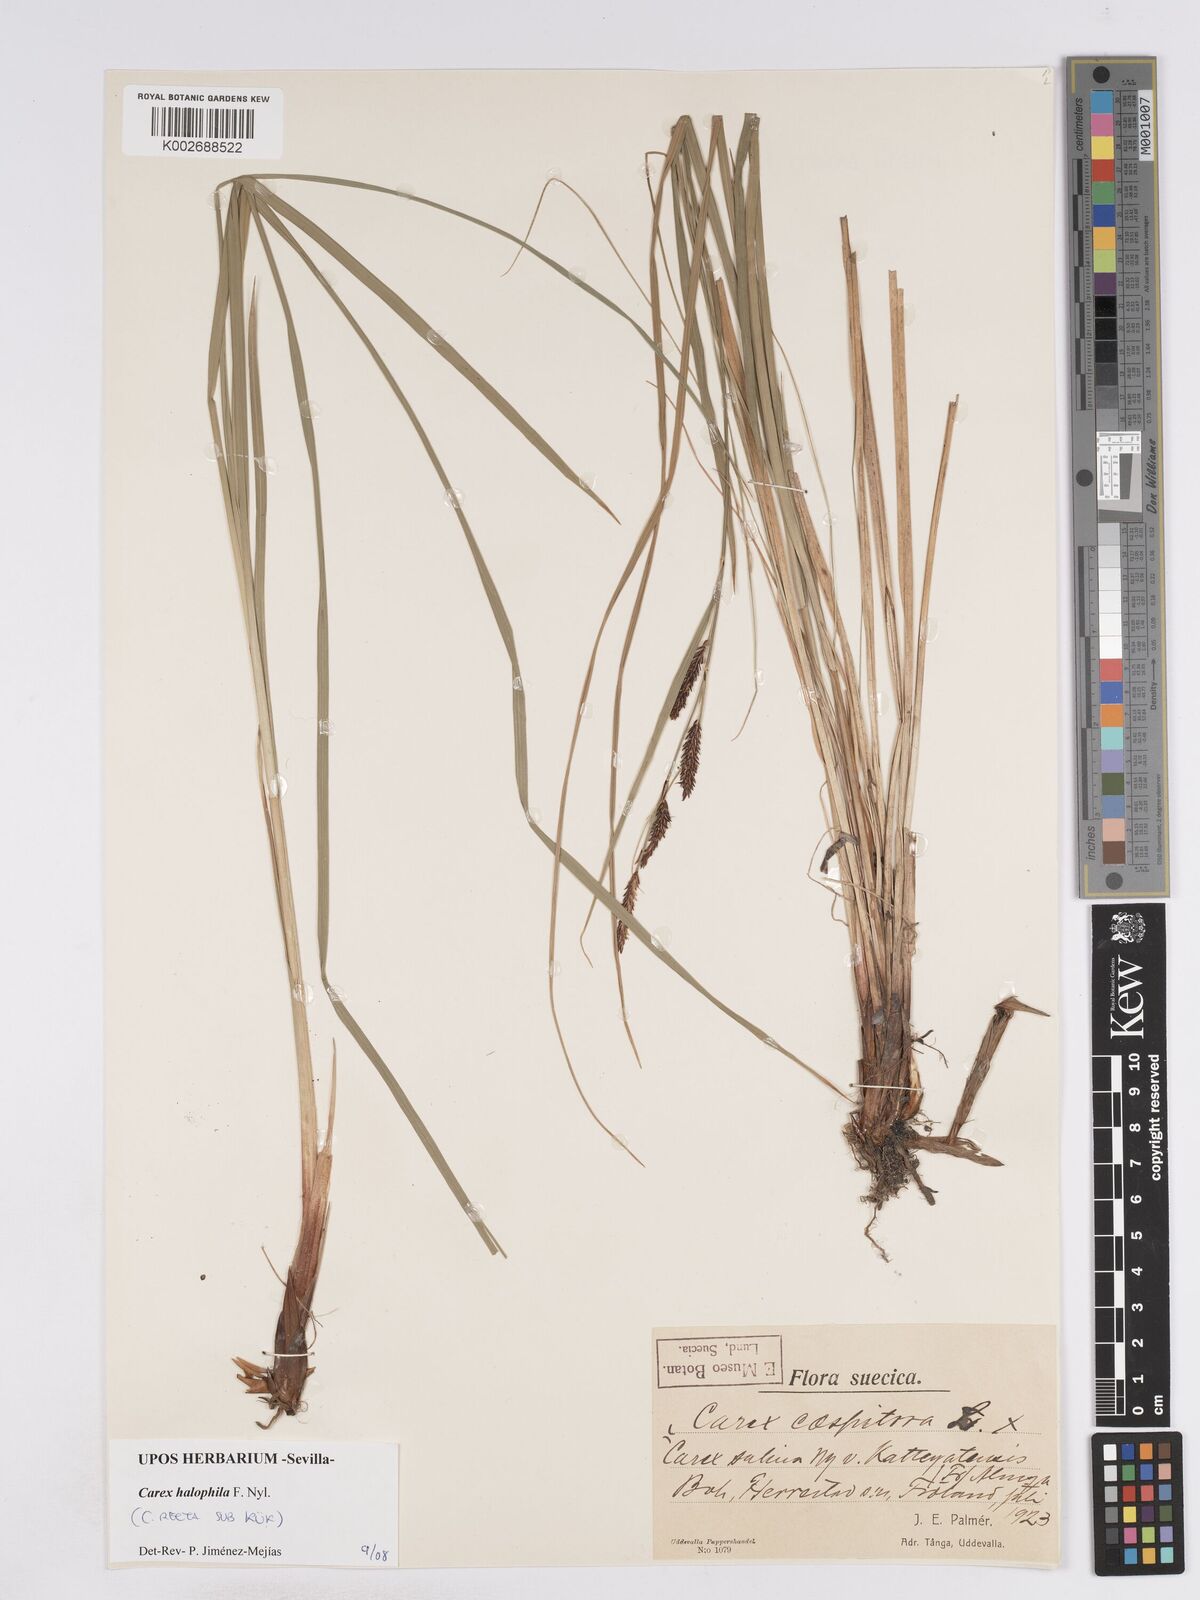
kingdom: Plantae
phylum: Tracheophyta
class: Liliopsida
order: Poales
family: Cyperaceae
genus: Carex
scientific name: Carex recta
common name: Estuarine sedge
